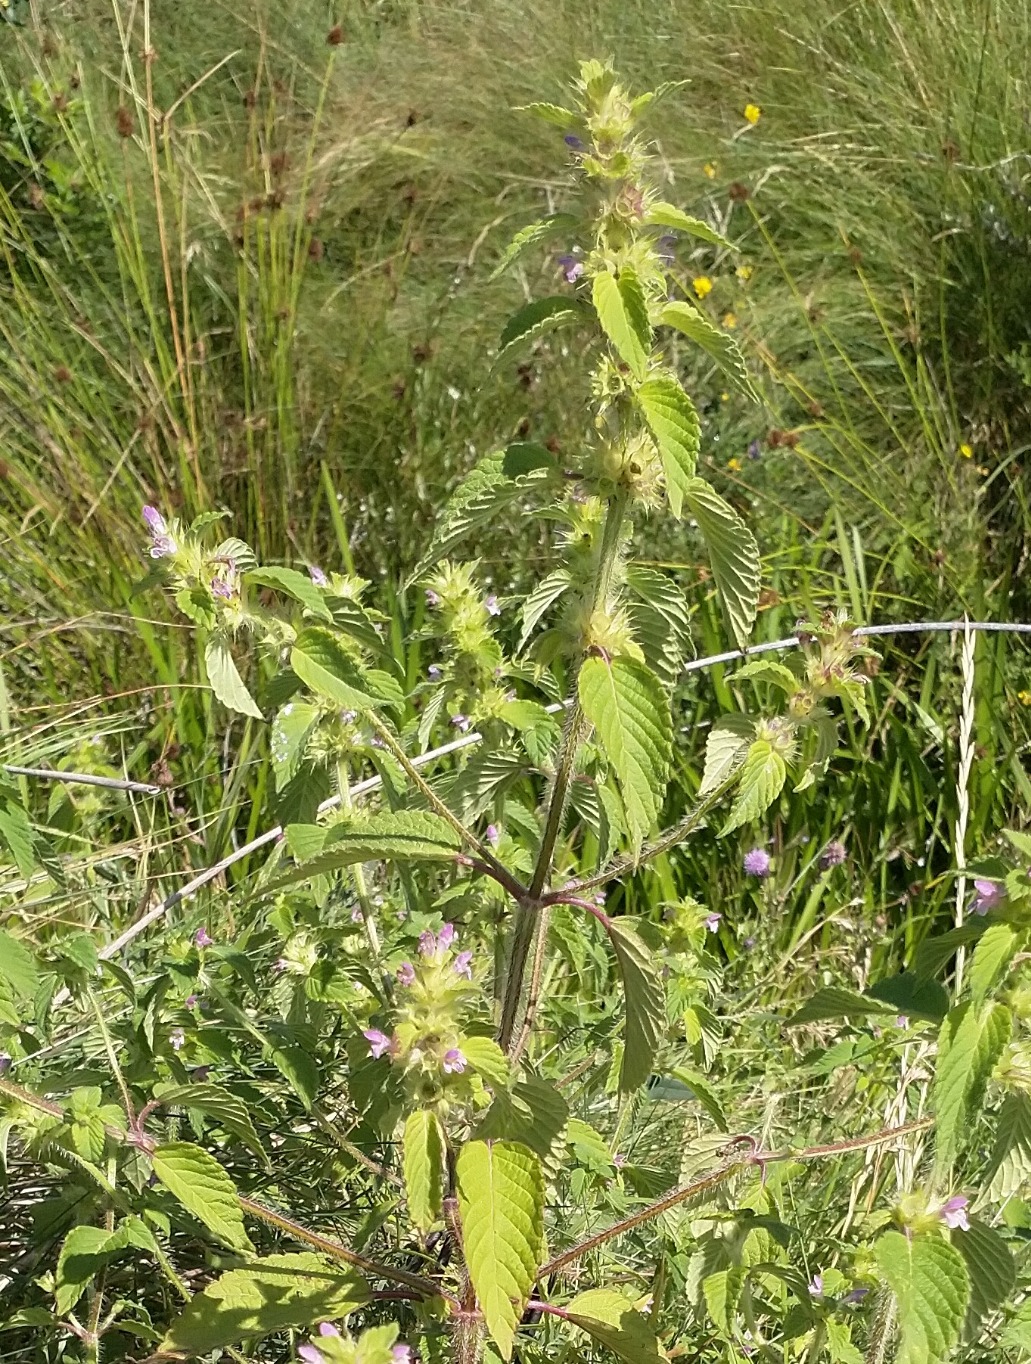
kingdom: Plantae
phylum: Tracheophyta
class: Magnoliopsida
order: Lamiales
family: Lamiaceae
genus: Galeopsis
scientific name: Galeopsis bifida
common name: Skov-hanekro
